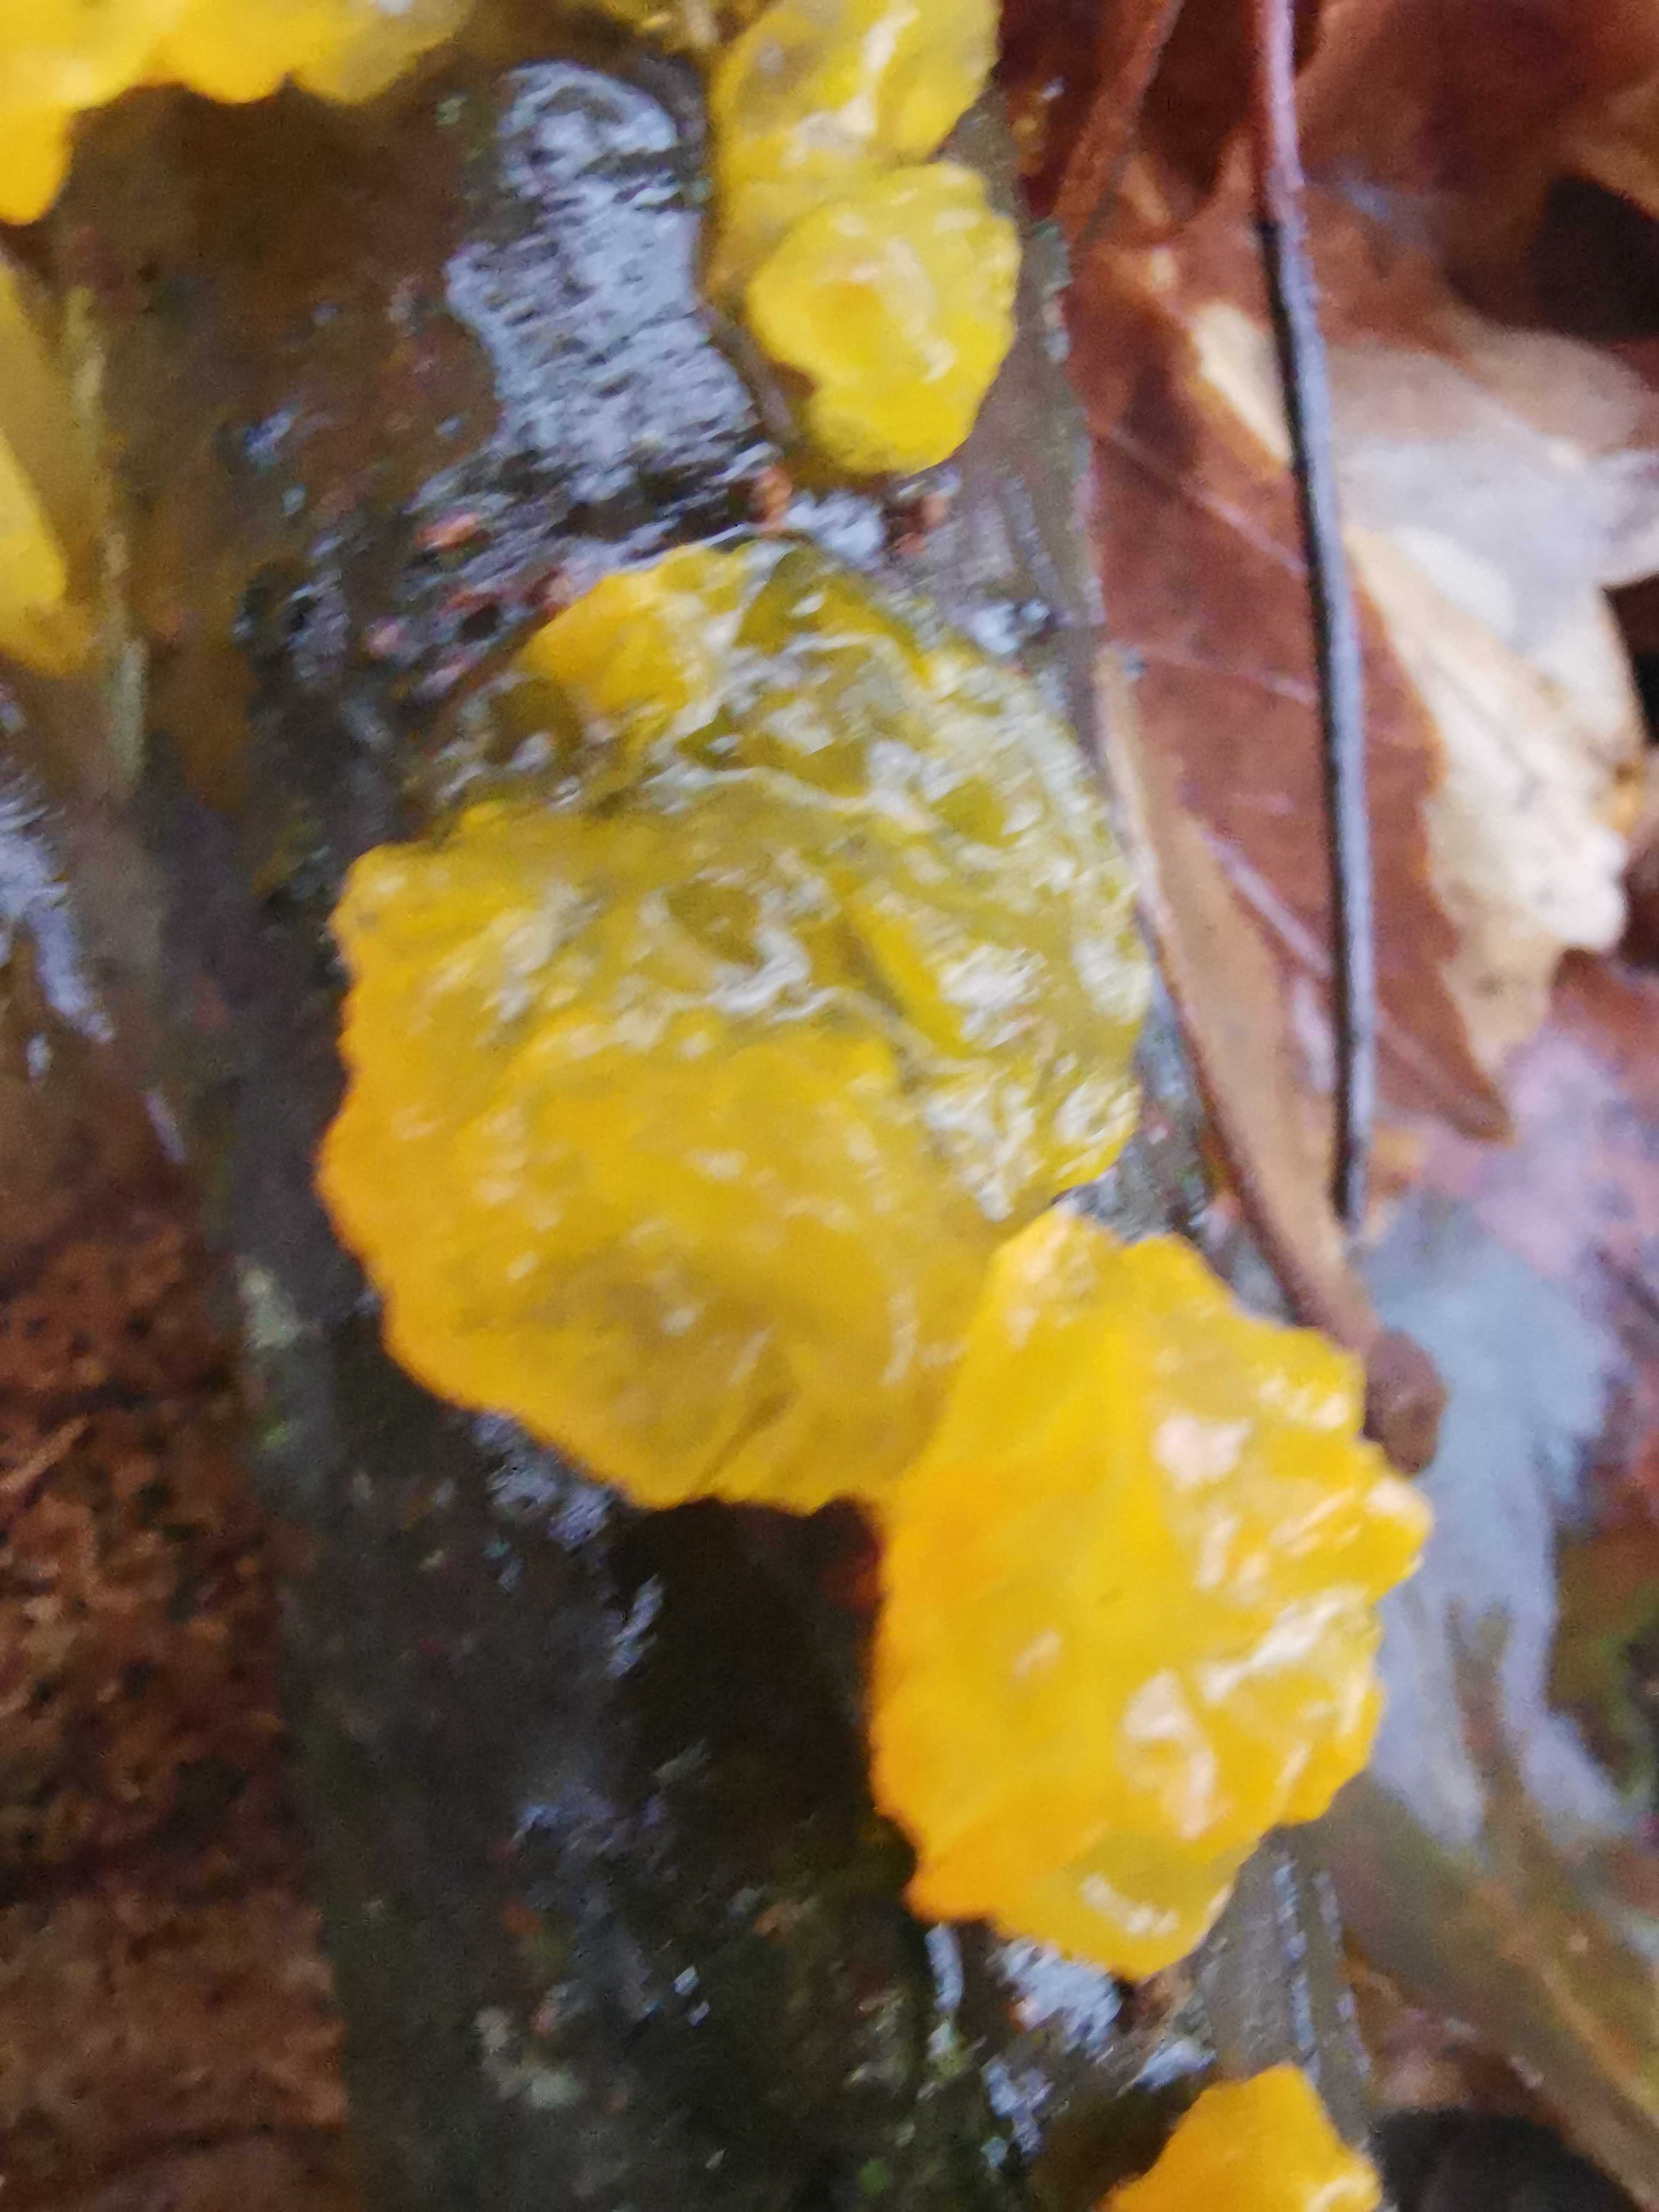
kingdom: Fungi
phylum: Basidiomycota
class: Tremellomycetes
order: Tremellales
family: Tremellaceae
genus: Tremella
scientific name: Tremella mesenterica
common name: gul bævresvamp
